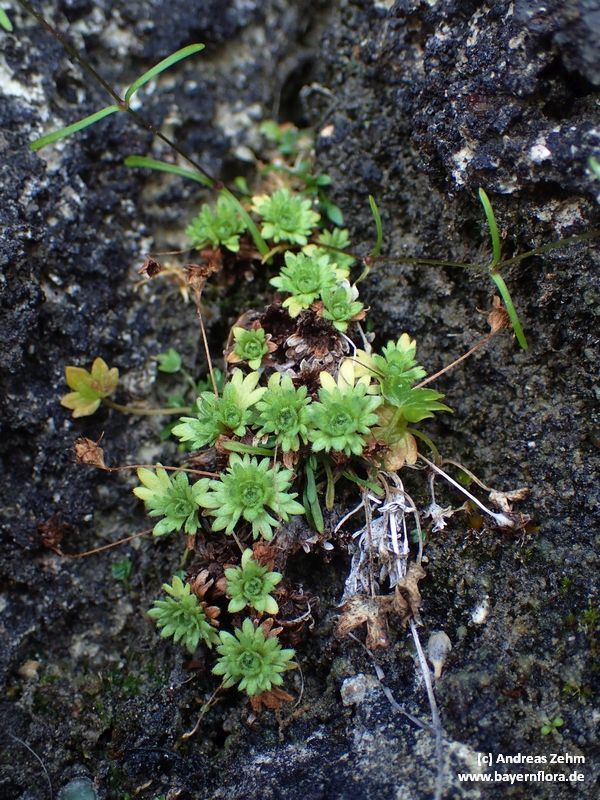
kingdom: Plantae
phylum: Tracheophyta
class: Magnoliopsida
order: Saxifragales
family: Saxifragaceae
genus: Saxifraga
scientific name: Saxifraga aphylla
